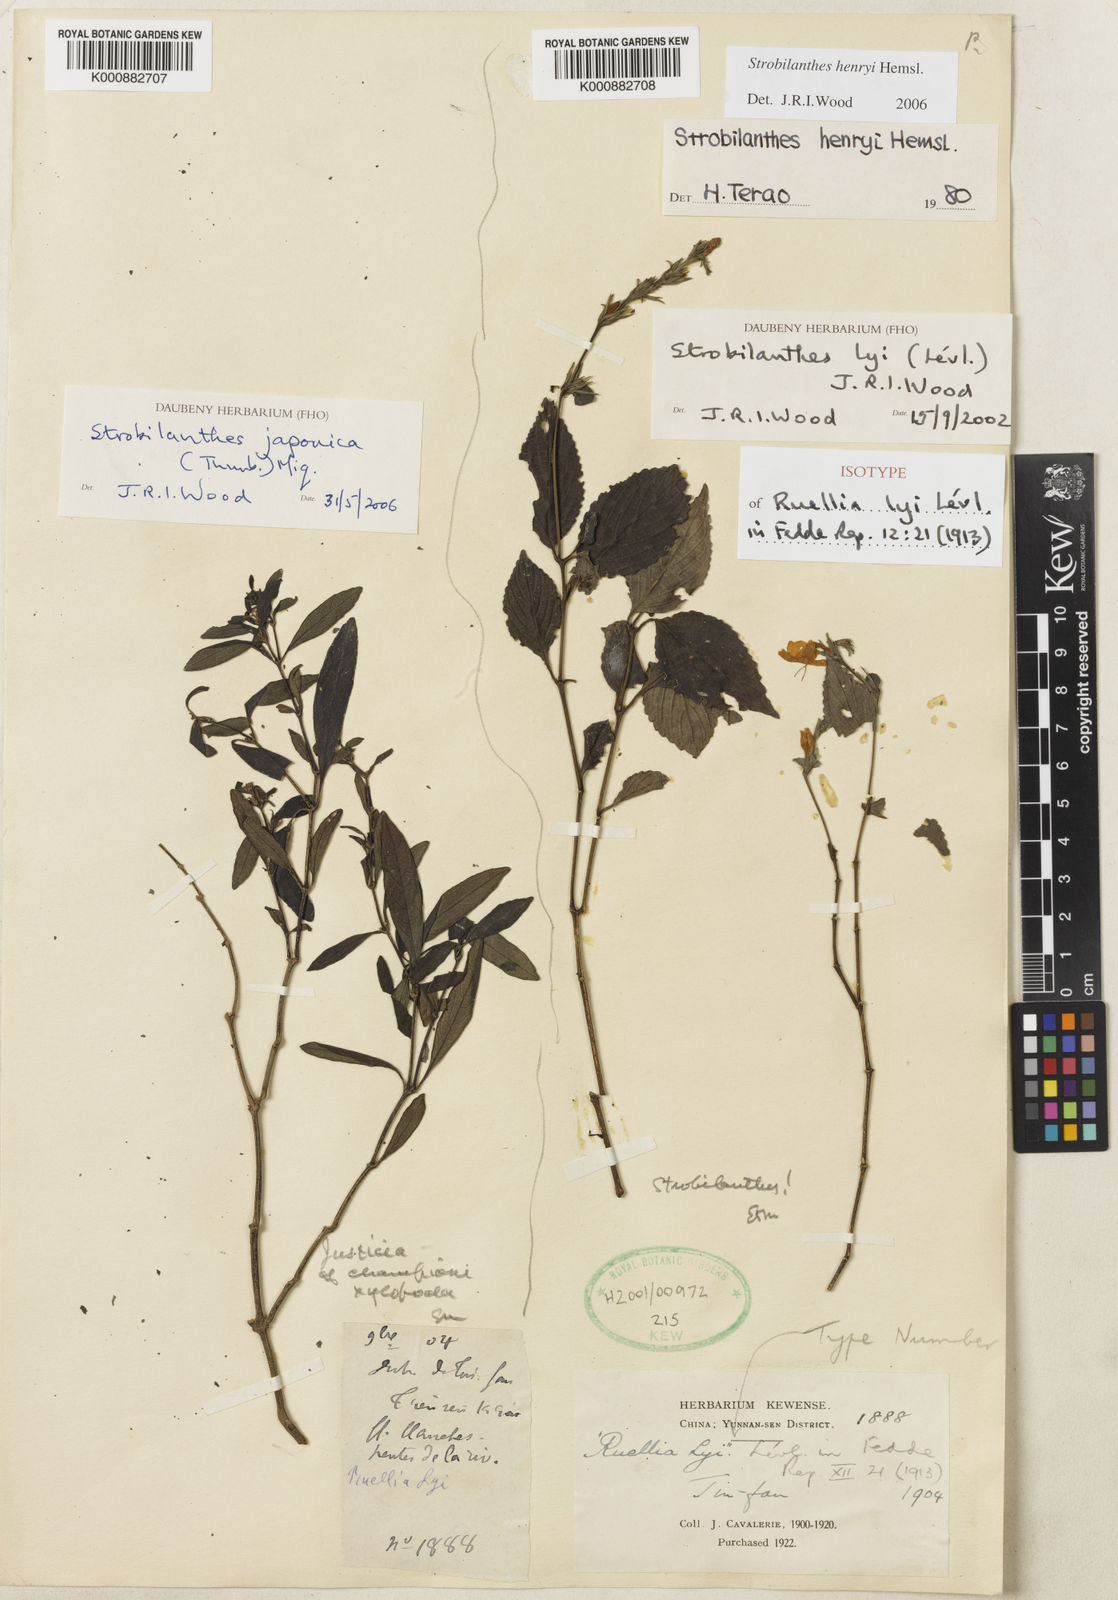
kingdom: Plantae
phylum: Tracheophyta
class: Magnoliopsida
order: Lamiales
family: Acanthaceae
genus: Strobilanthes
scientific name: Strobilanthes henryi
